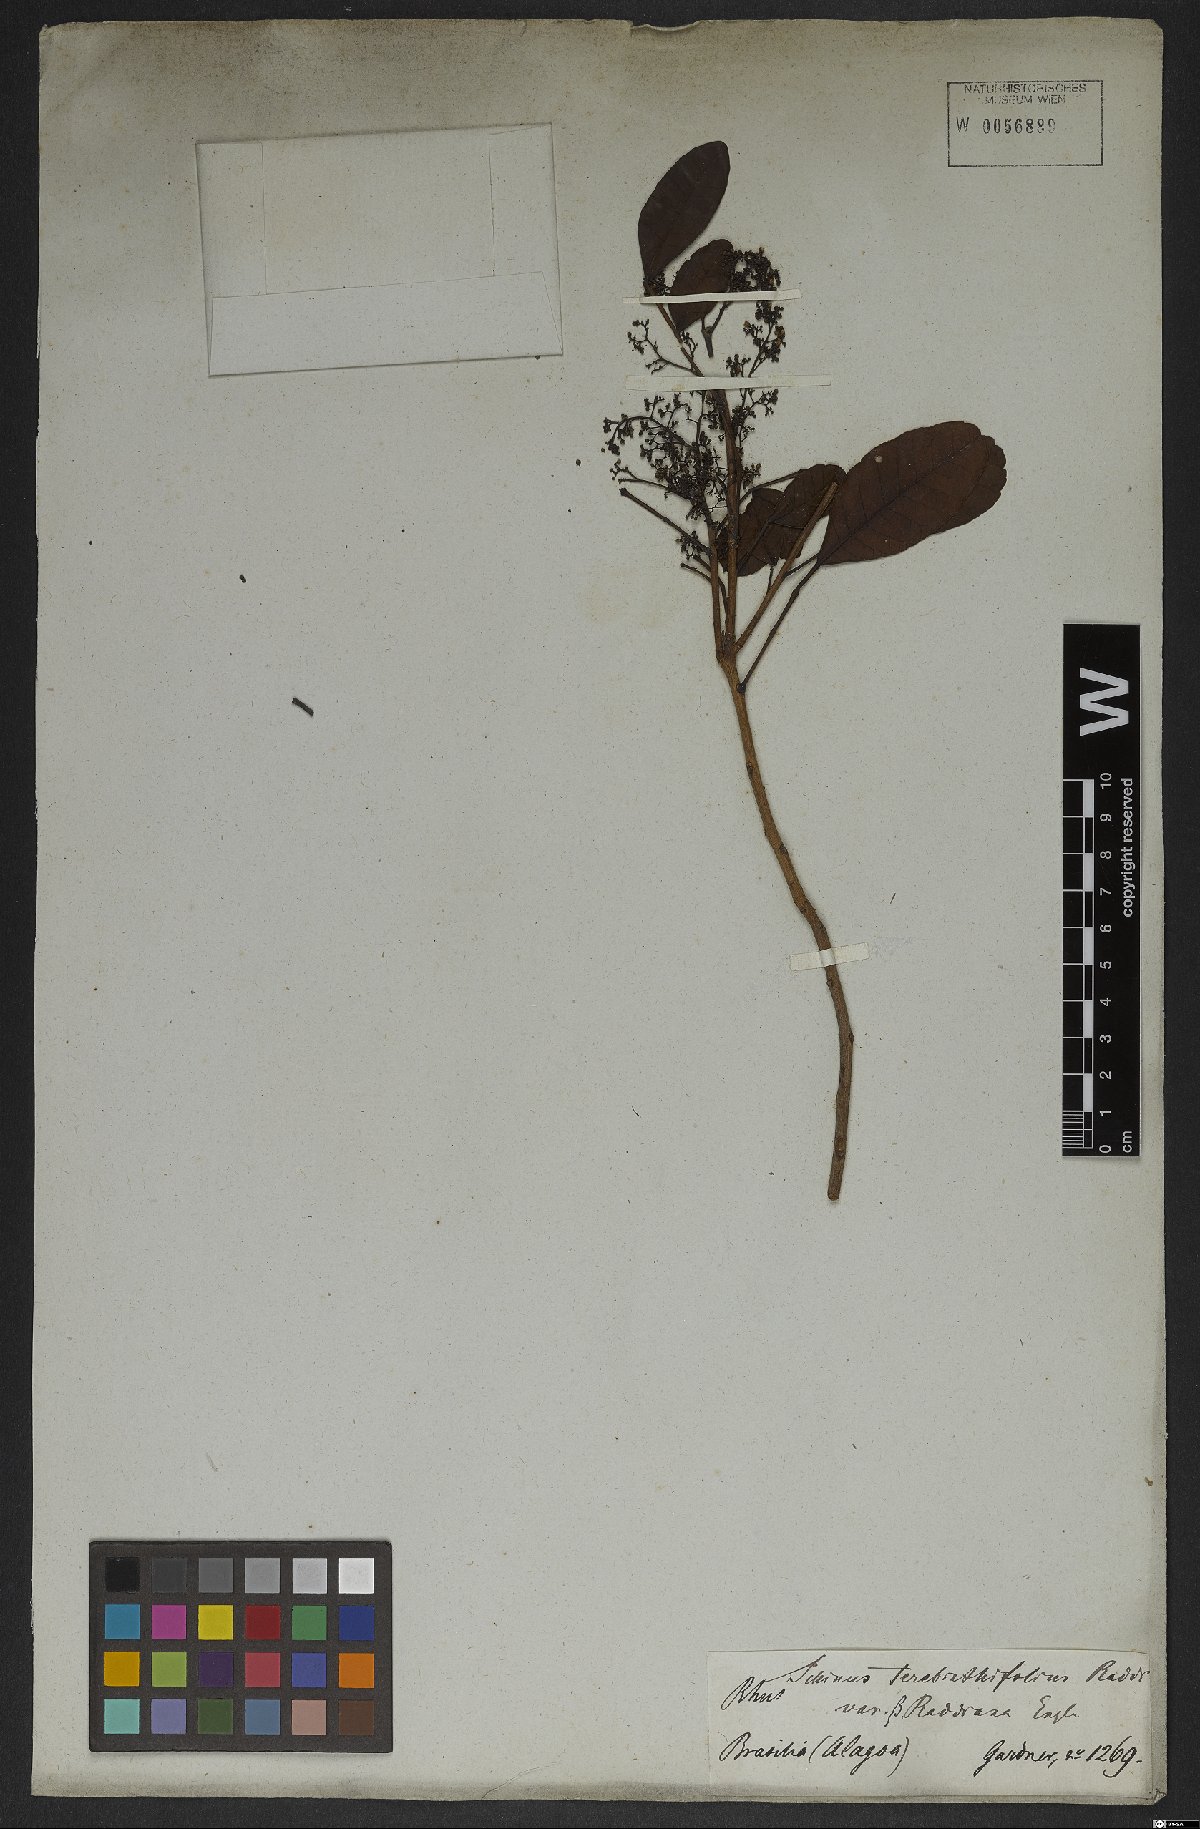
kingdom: Plantae
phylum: Tracheophyta
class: Magnoliopsida
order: Gentianales
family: Apocynaceae
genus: Prestonia
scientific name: Prestonia coalita
